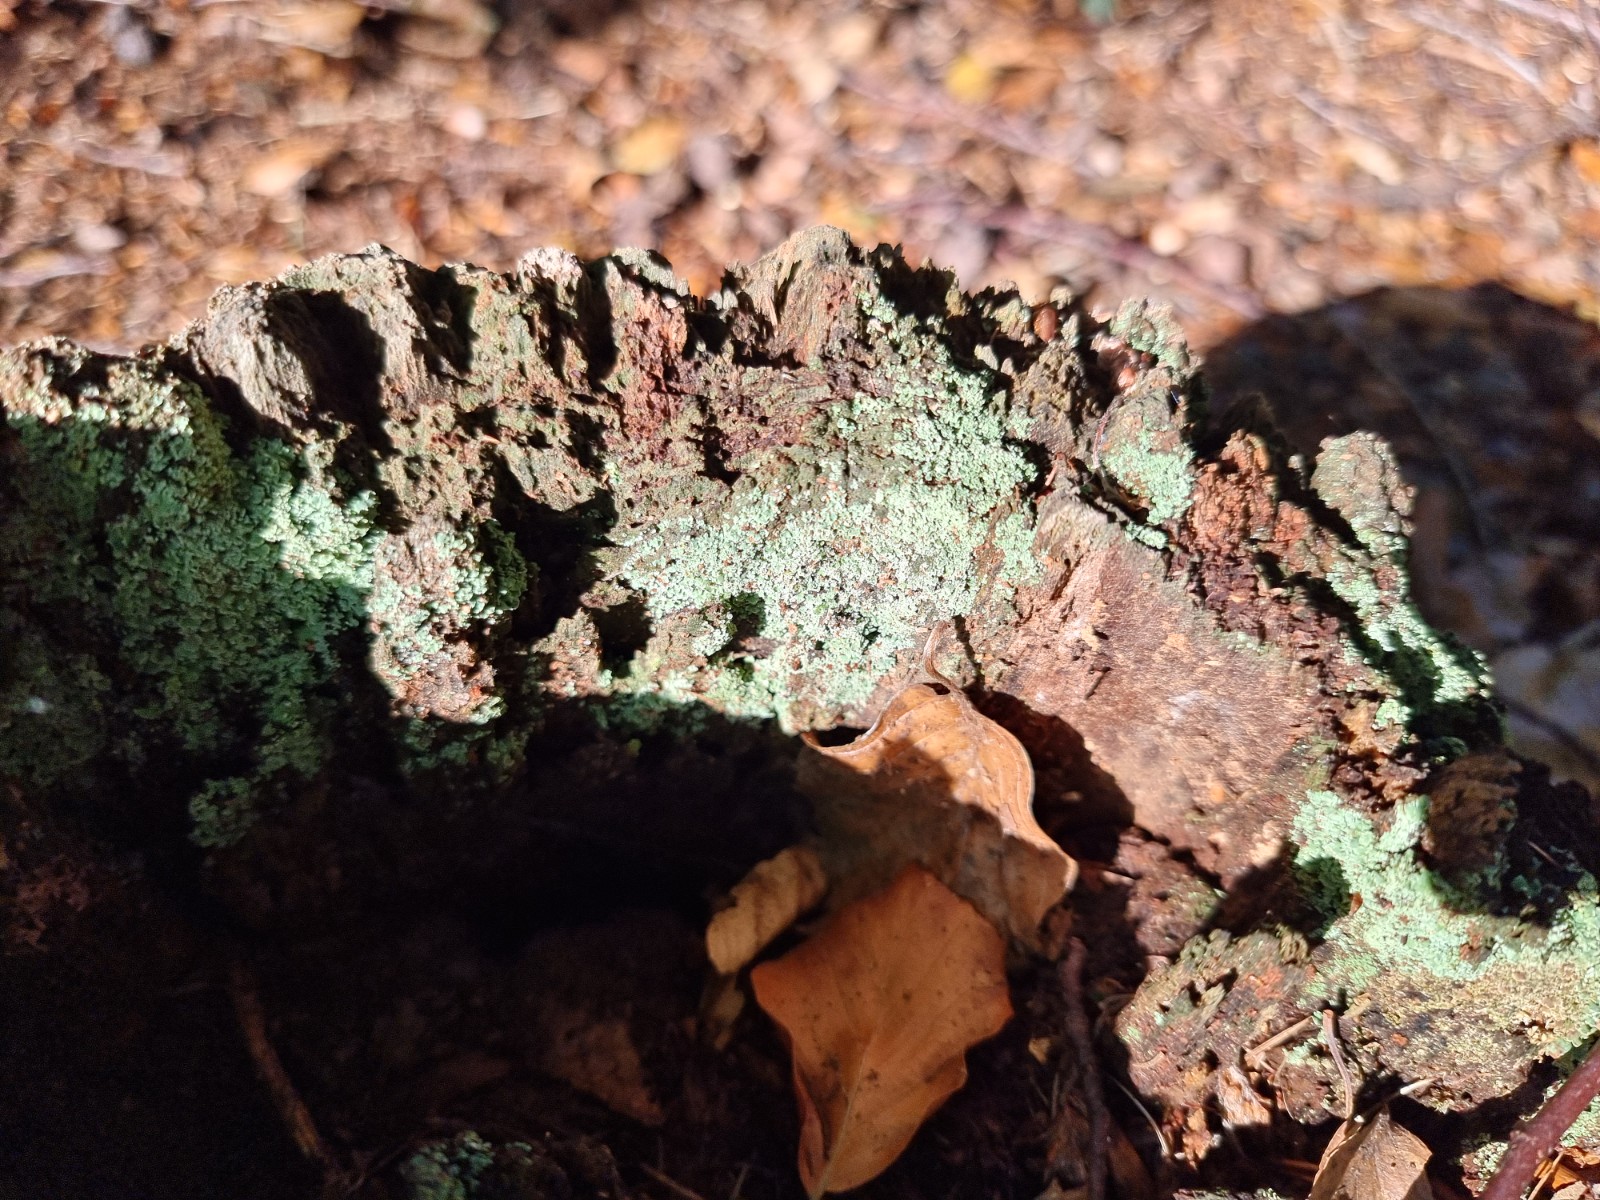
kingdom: Fungi
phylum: Ascomycota
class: Lecanoromycetes
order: Lecanorales
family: Cladoniaceae
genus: Cladonia
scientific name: Cladonia
